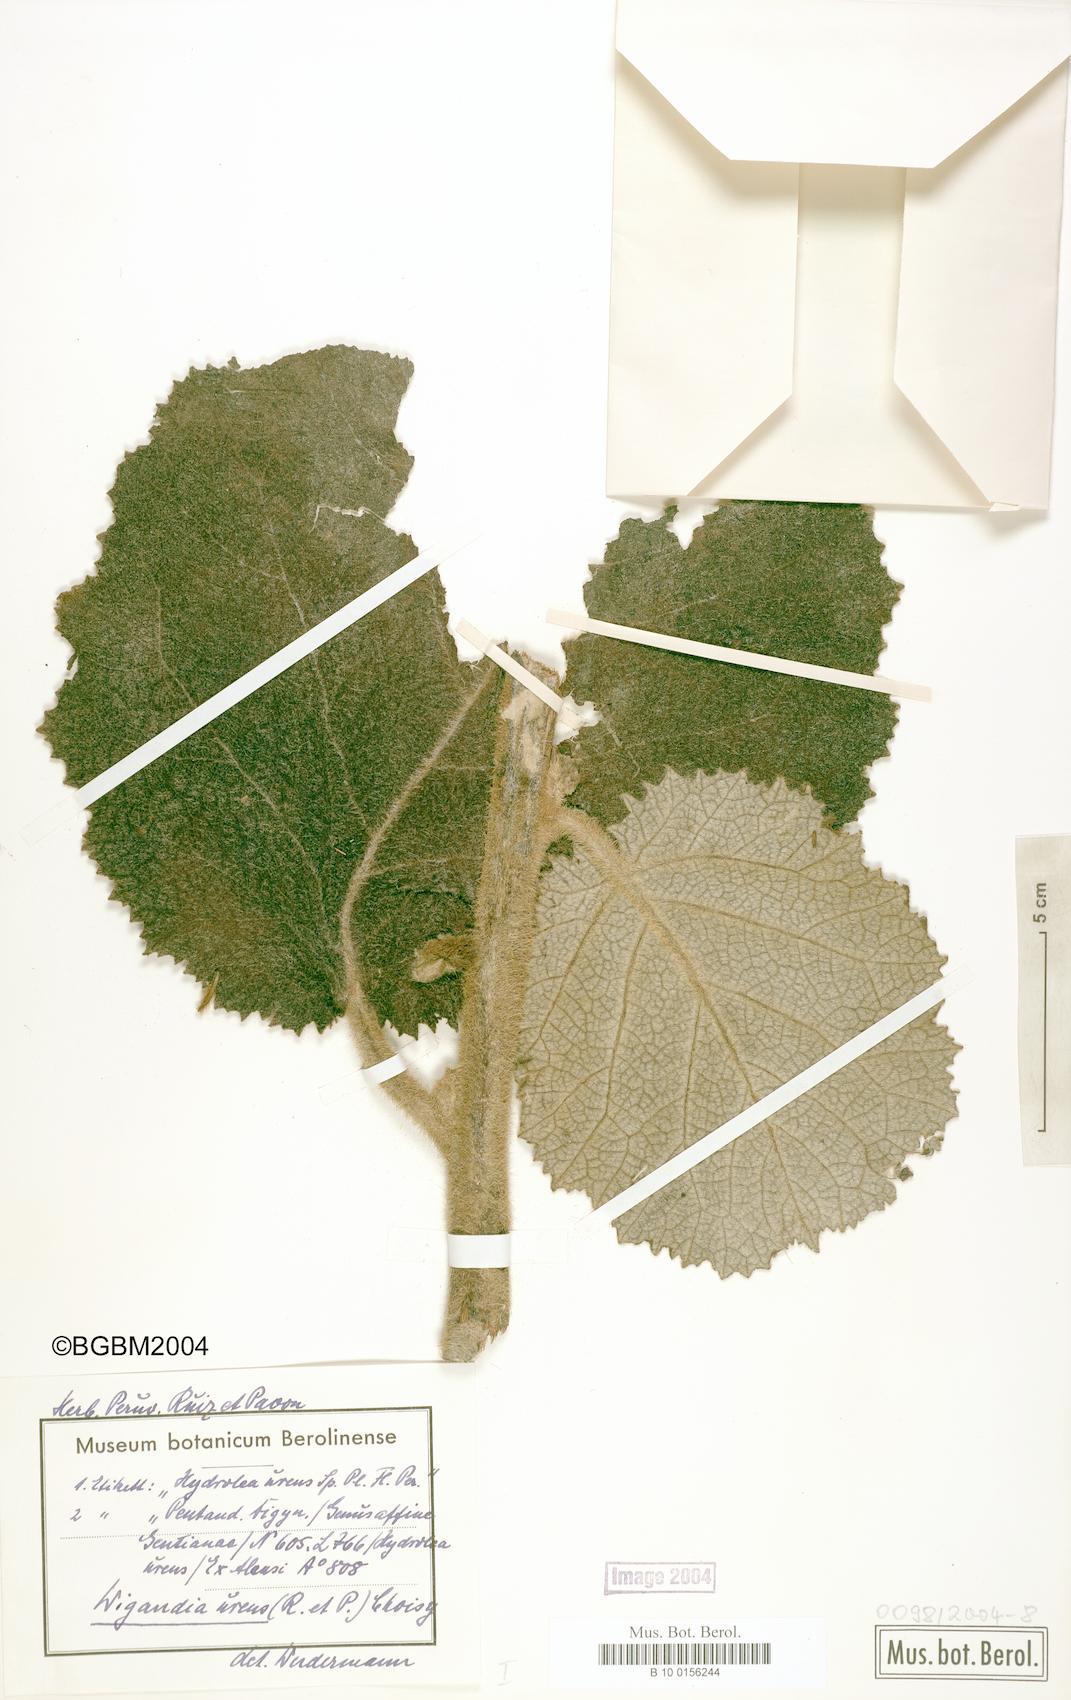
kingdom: Plantae
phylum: Tracheophyta
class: Magnoliopsida
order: Boraginales
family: Namaceae
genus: Wigandia
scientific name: Wigandia urens
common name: Caracus wigandia
